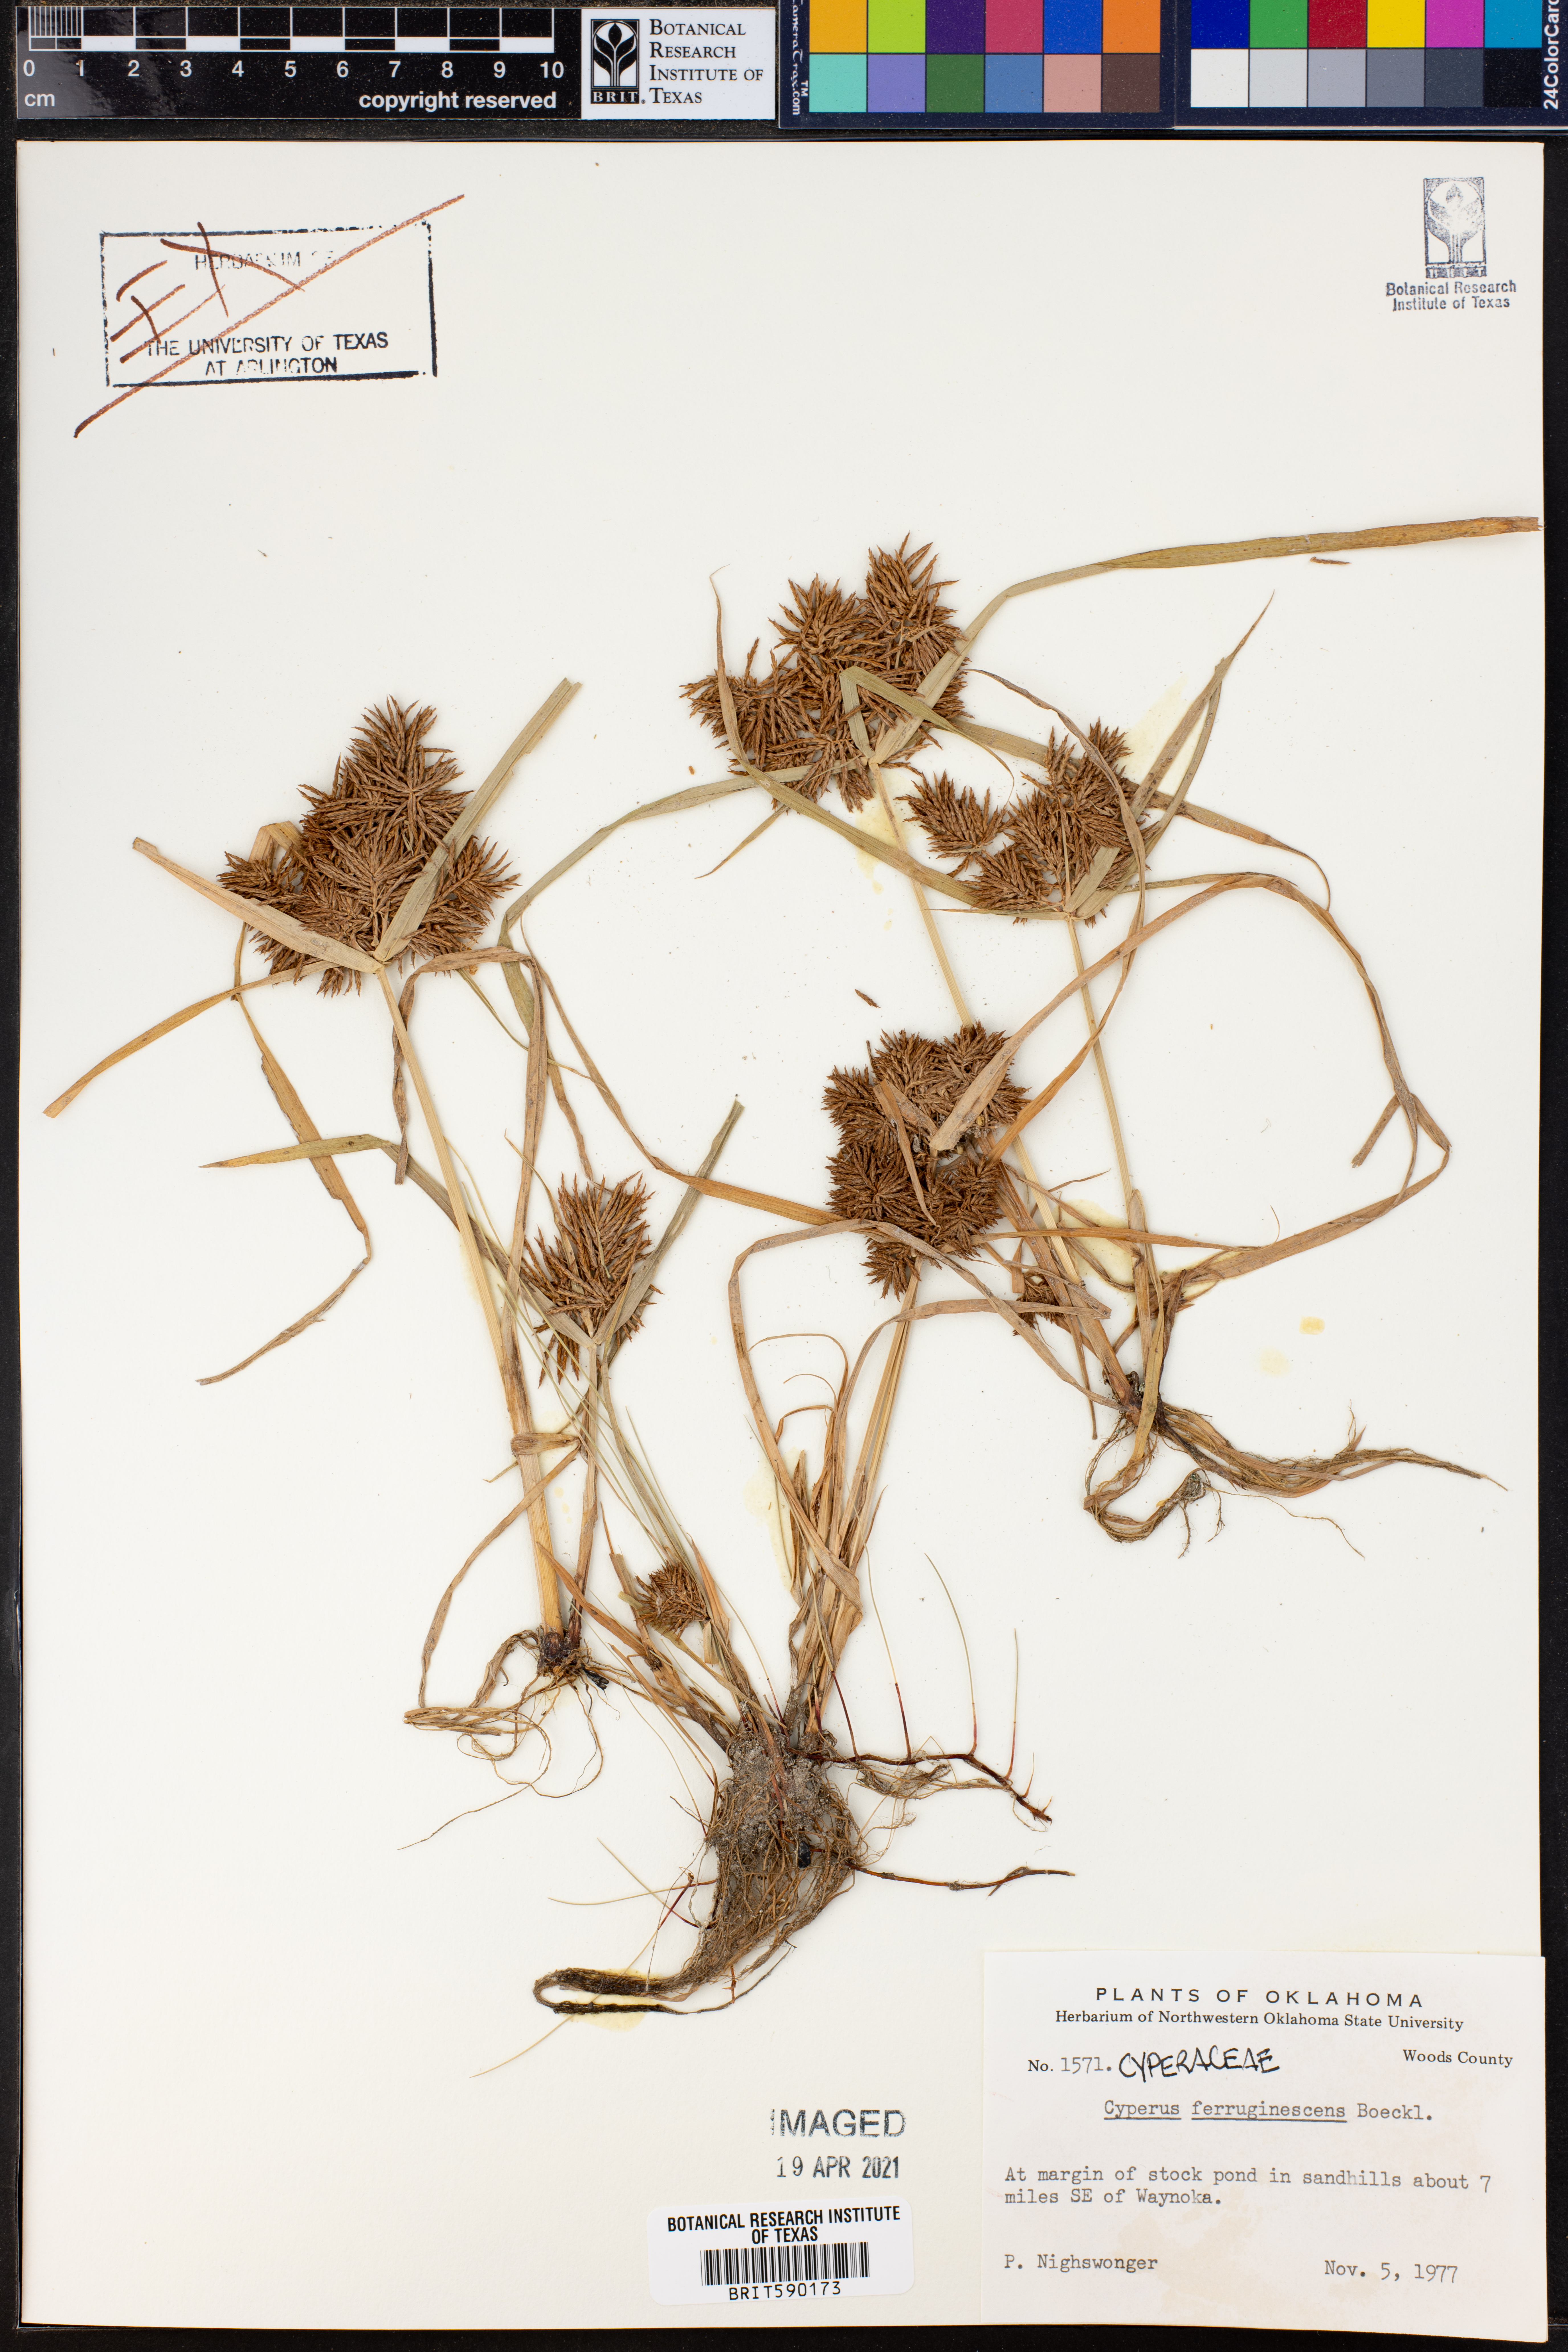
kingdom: Plantae
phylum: Tracheophyta
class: Liliopsida
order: Poales
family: Cyperaceae
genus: Cyperus
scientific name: Cyperus odoratus
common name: Fragrant flatsedge
